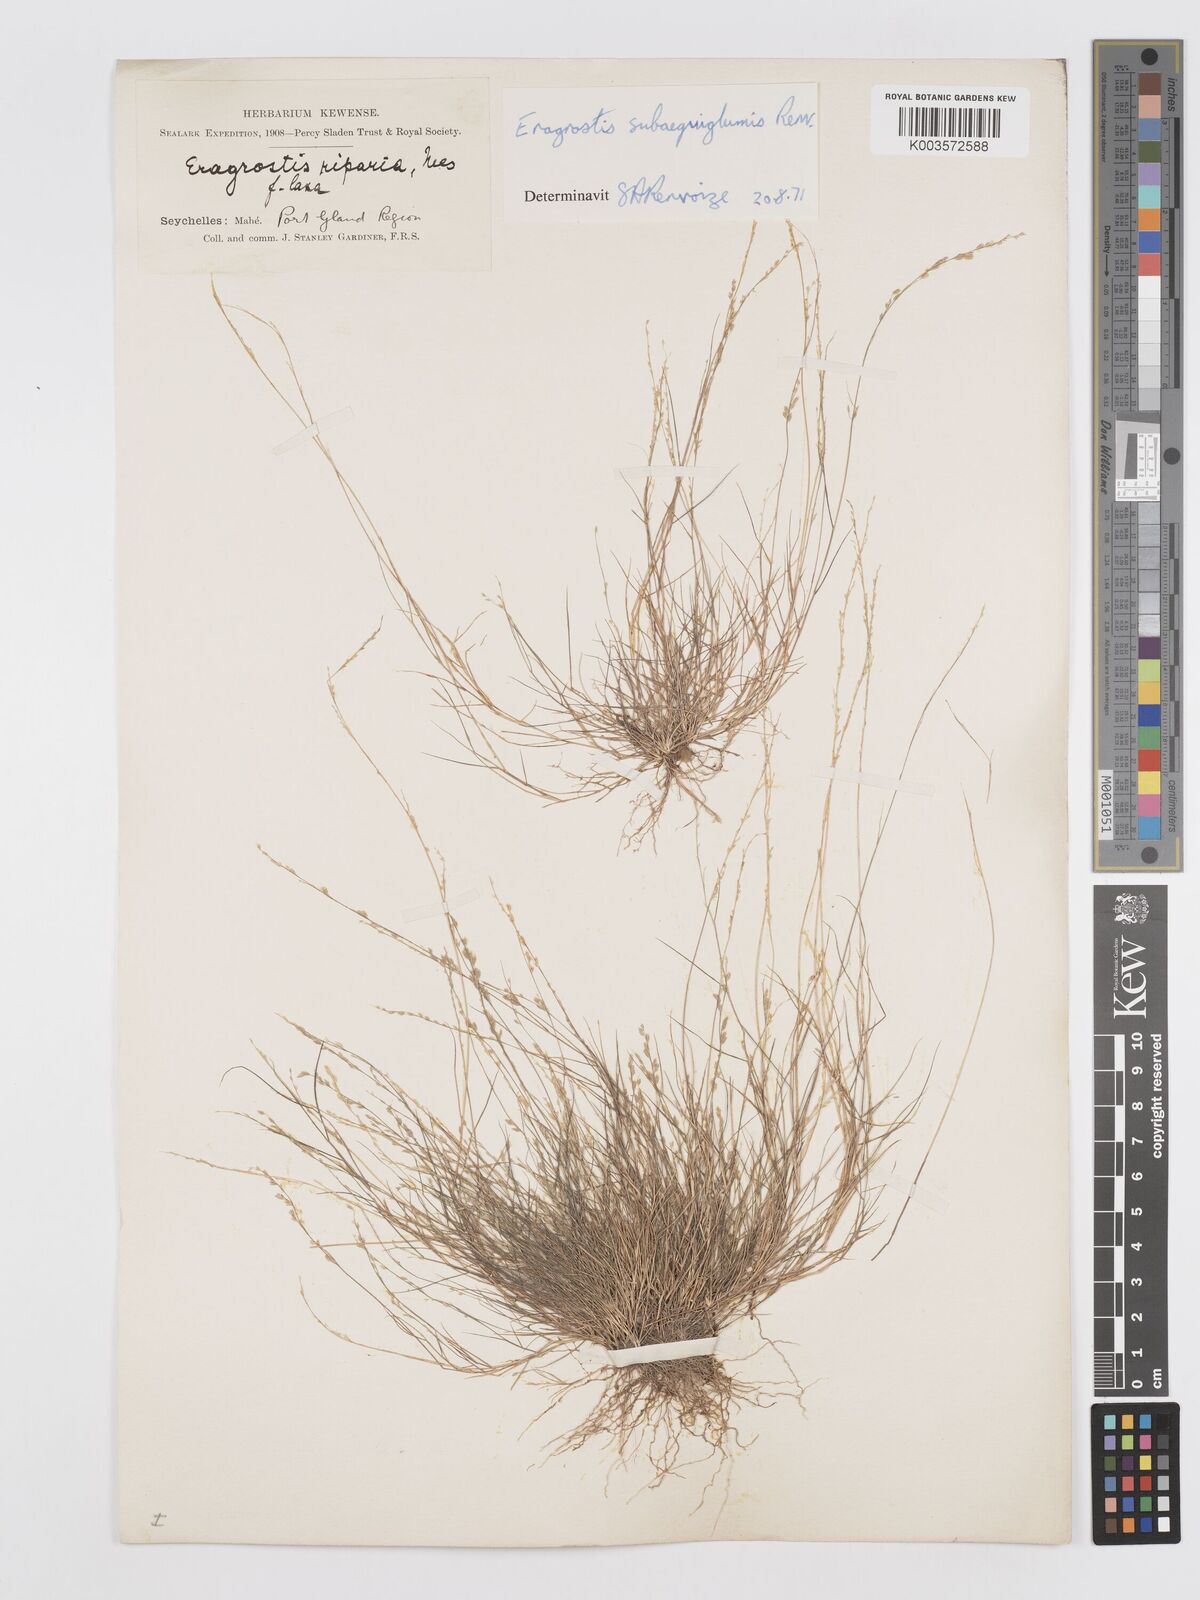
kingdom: Plantae
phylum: Tracheophyta
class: Liliopsida
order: Poales
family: Poaceae
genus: Eragrostis
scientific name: Eragrostis subaequiglumis
